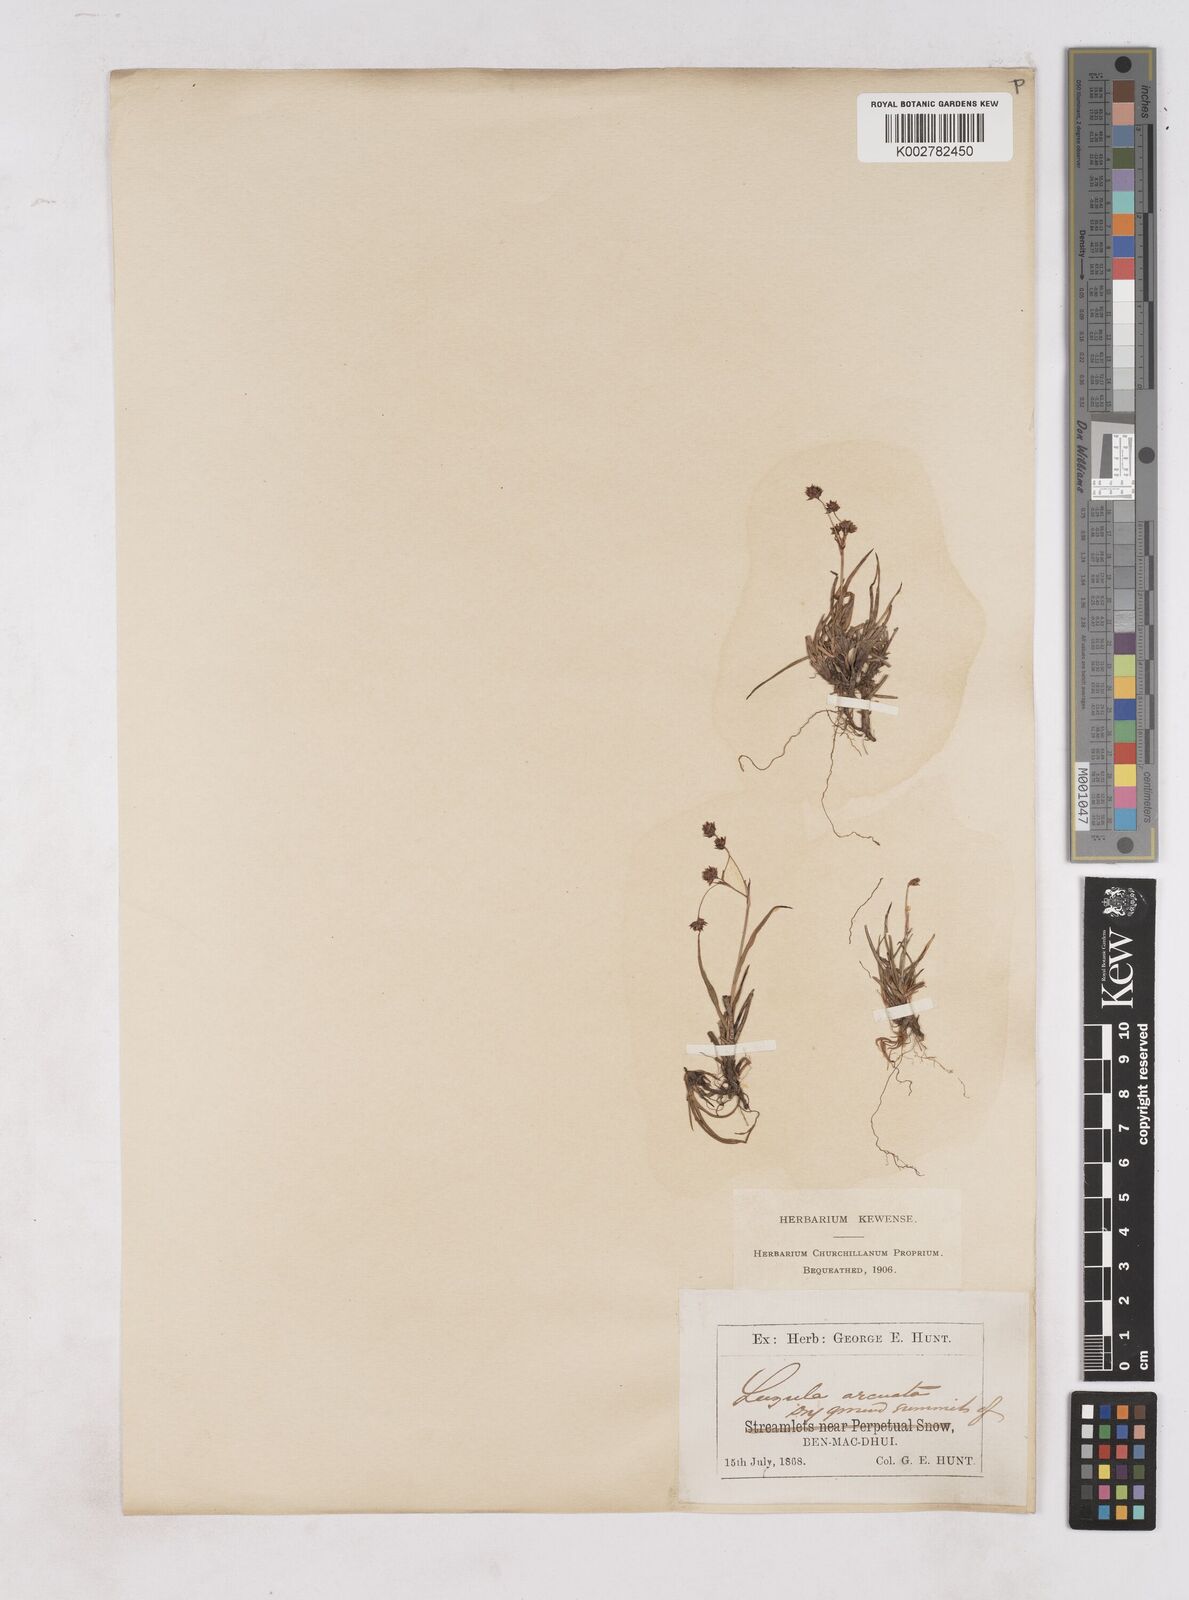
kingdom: Plantae
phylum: Tracheophyta
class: Liliopsida
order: Poales
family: Juncaceae
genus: Luzula
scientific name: Luzula arcuata
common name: Curved wood-rush
